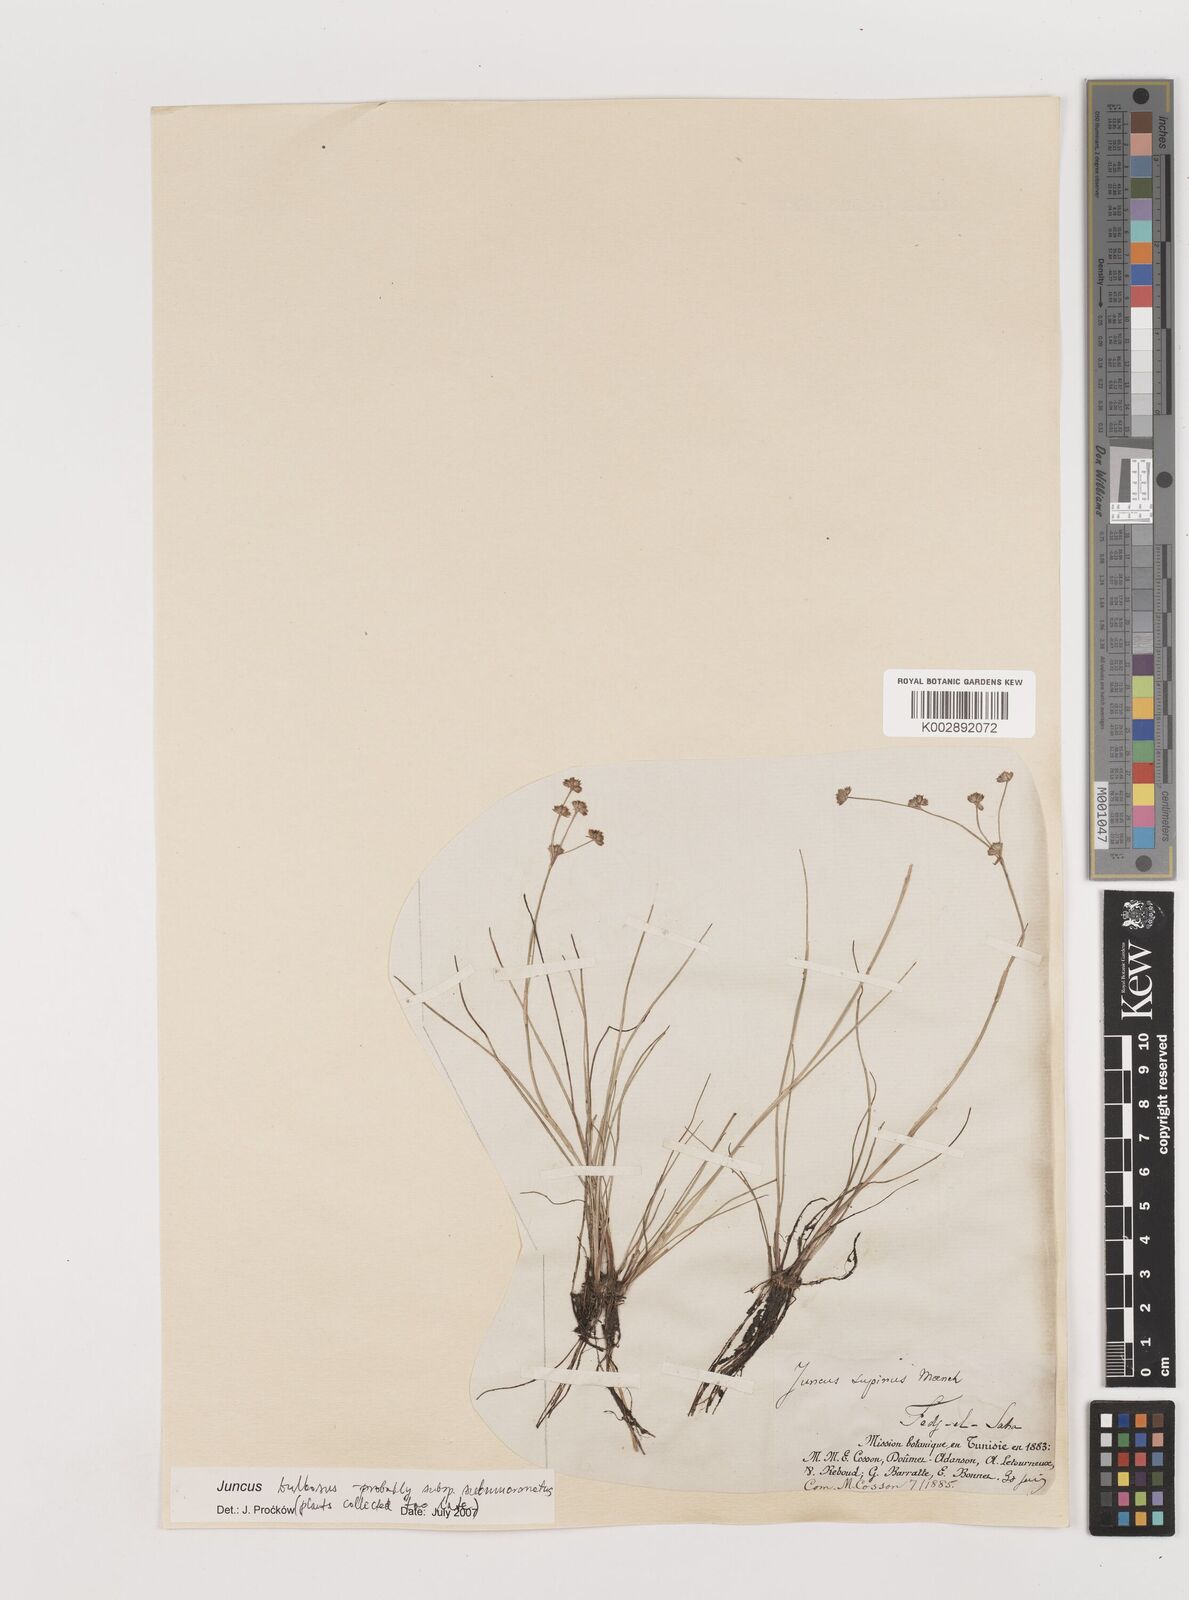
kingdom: Plantae
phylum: Tracheophyta
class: Liliopsida
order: Poales
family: Juncaceae
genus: Juncus
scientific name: Juncus bulbosus
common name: Bulbous rush
